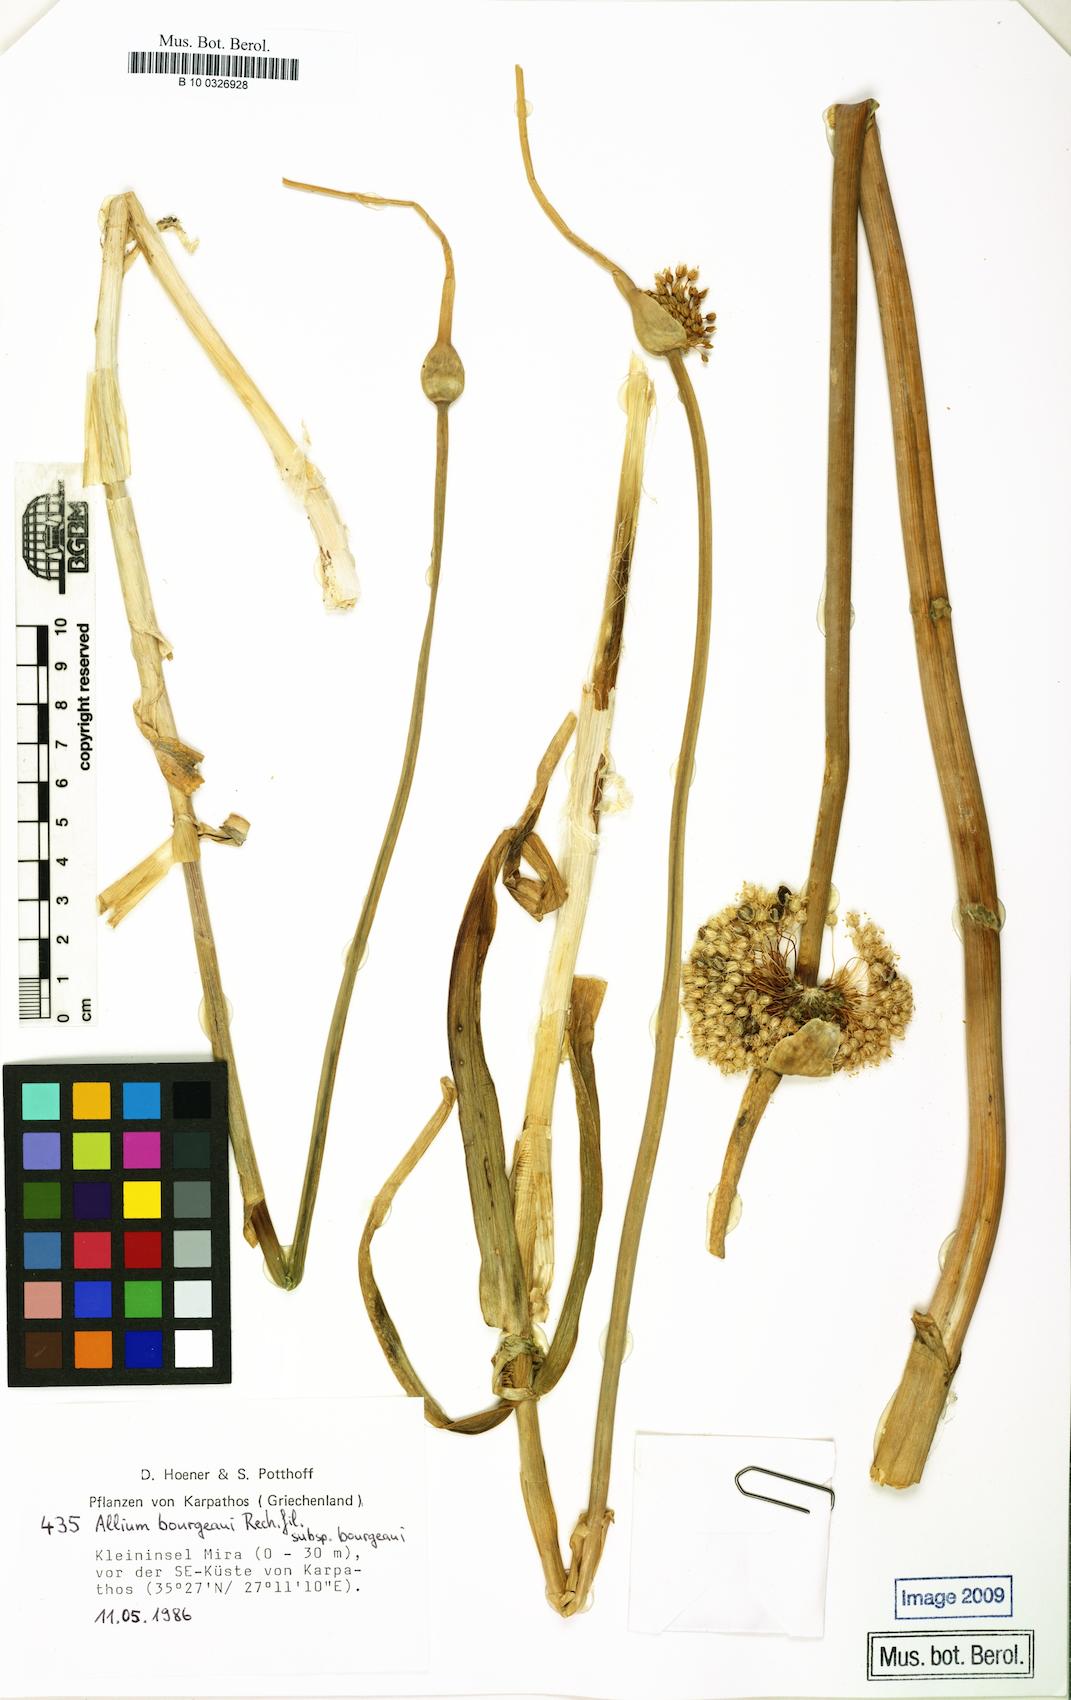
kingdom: Plantae
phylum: Tracheophyta
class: Liliopsida
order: Asparagales
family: Amaryllidaceae
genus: Allium
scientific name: Allium bourgeaui
